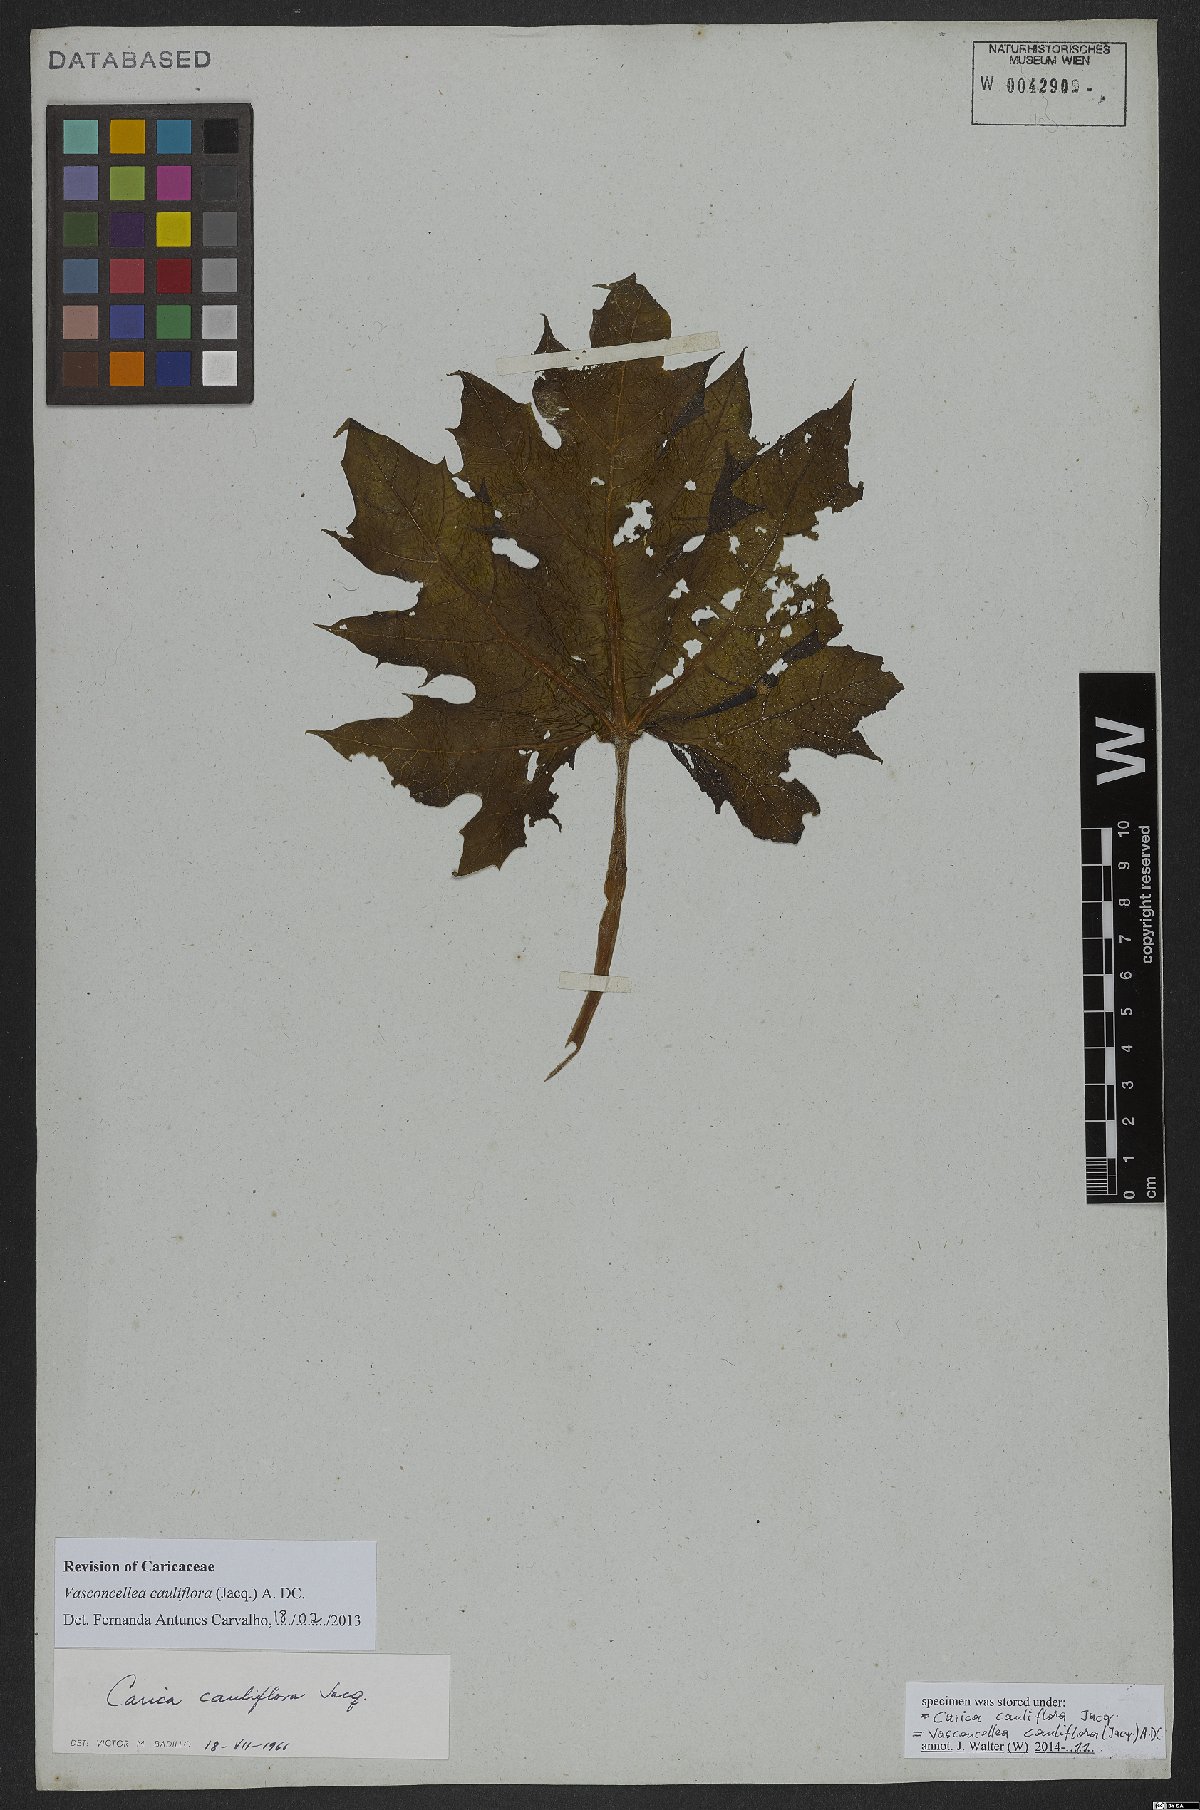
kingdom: Plantae
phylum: Tracheophyta
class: Magnoliopsida
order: Brassicales
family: Caricaceae
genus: Vasconcellea
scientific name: Vasconcellea cauliflora
